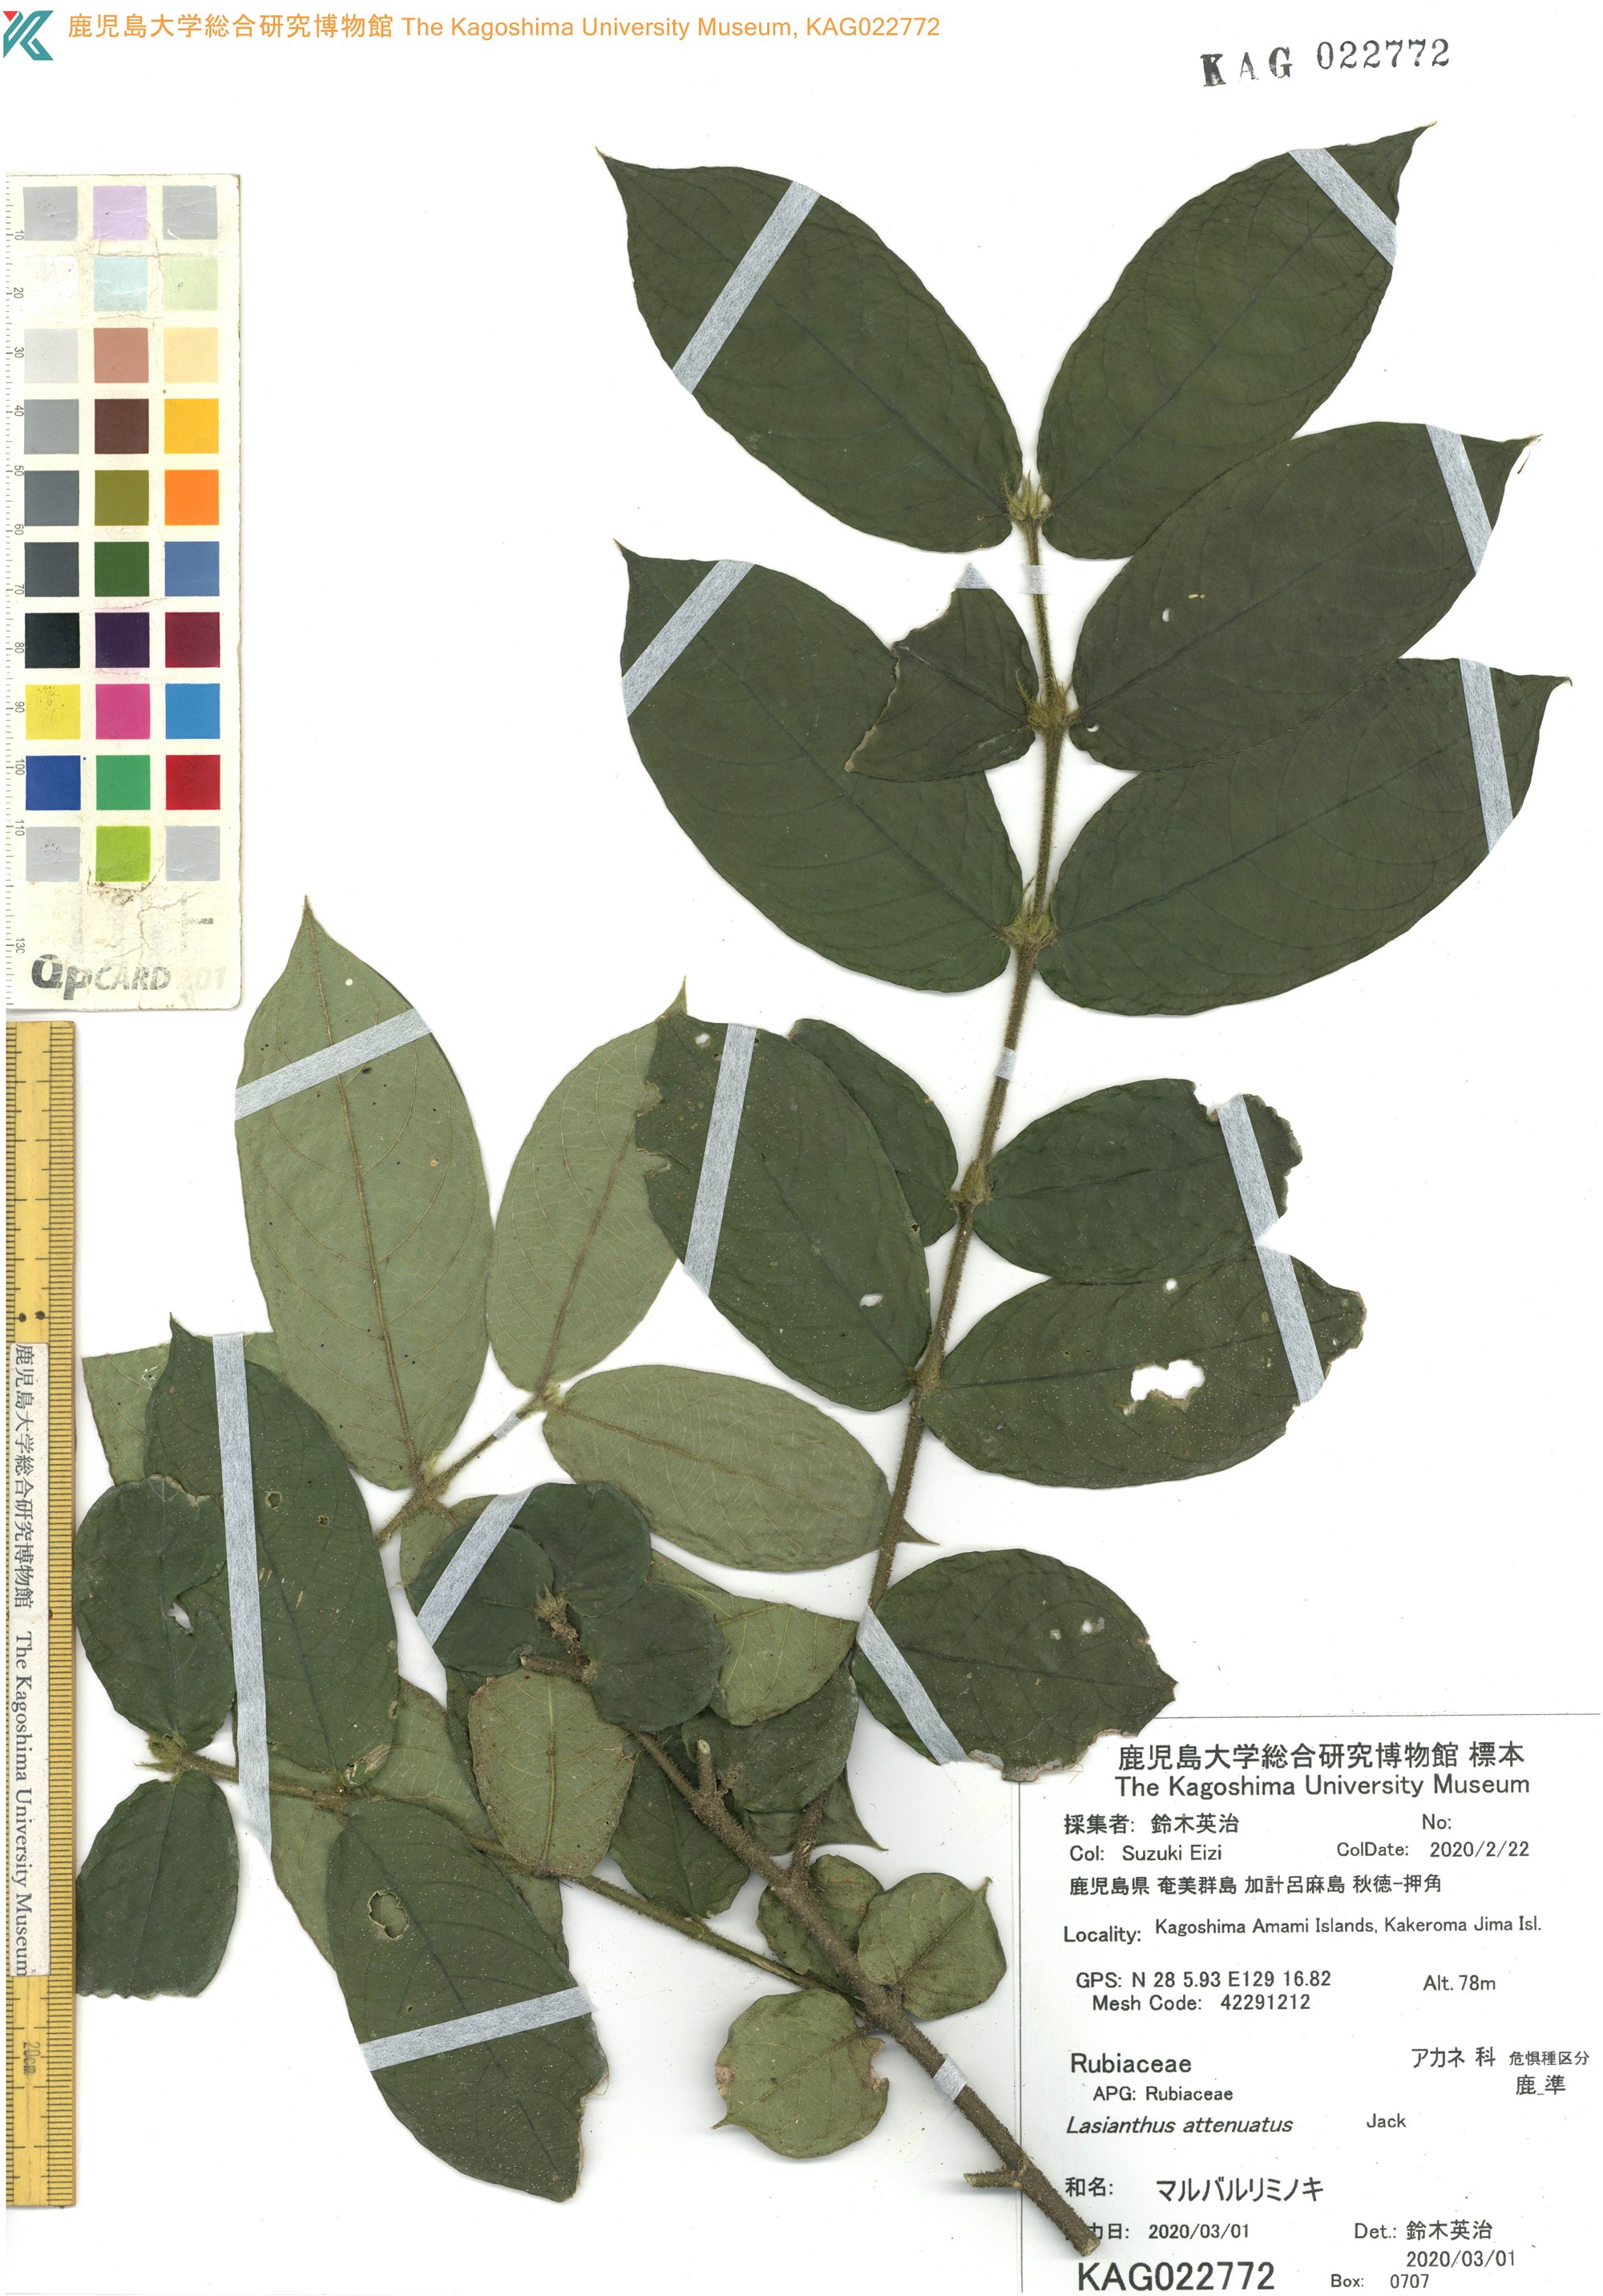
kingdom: Plantae
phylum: Tracheophyta
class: Magnoliopsida
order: Gentianales
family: Rubiaceae
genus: Lasianthus
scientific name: Lasianthus attenuatus
